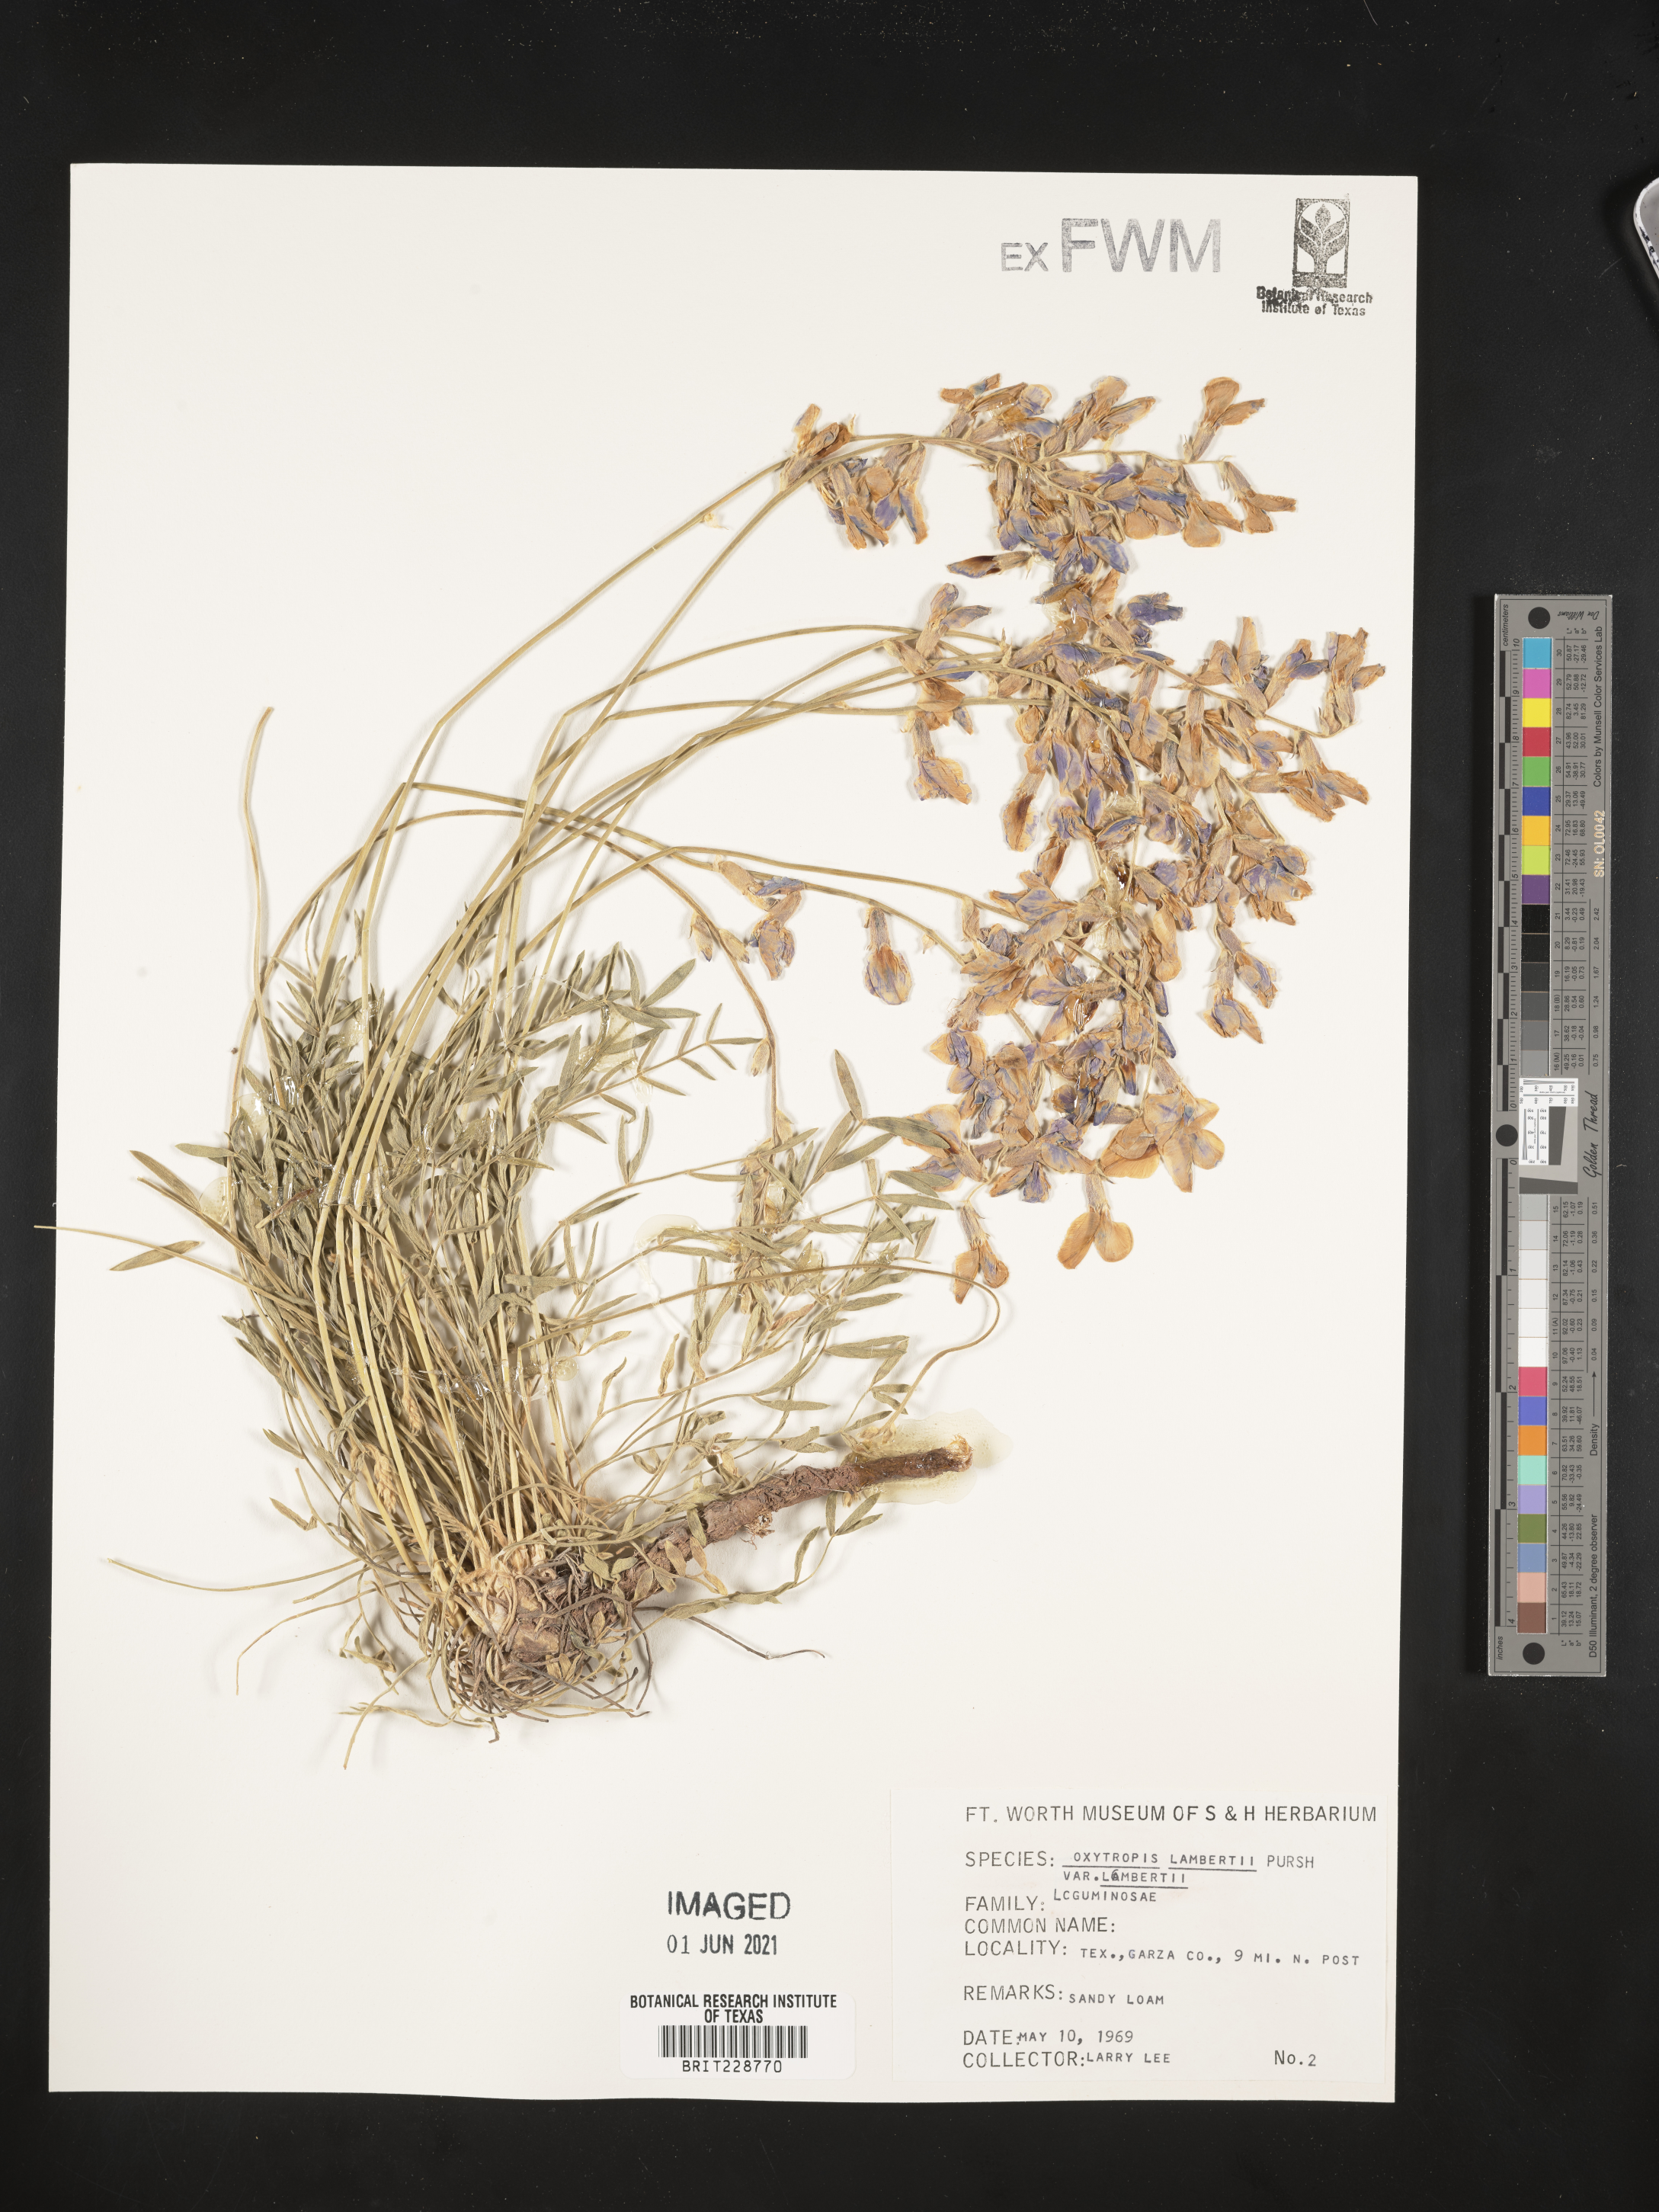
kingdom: Plantae
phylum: Tracheophyta
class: Magnoliopsida
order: Fabales
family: Fabaceae
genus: Oxytropis
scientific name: Oxytropis lambertii
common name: Purple locoweed
